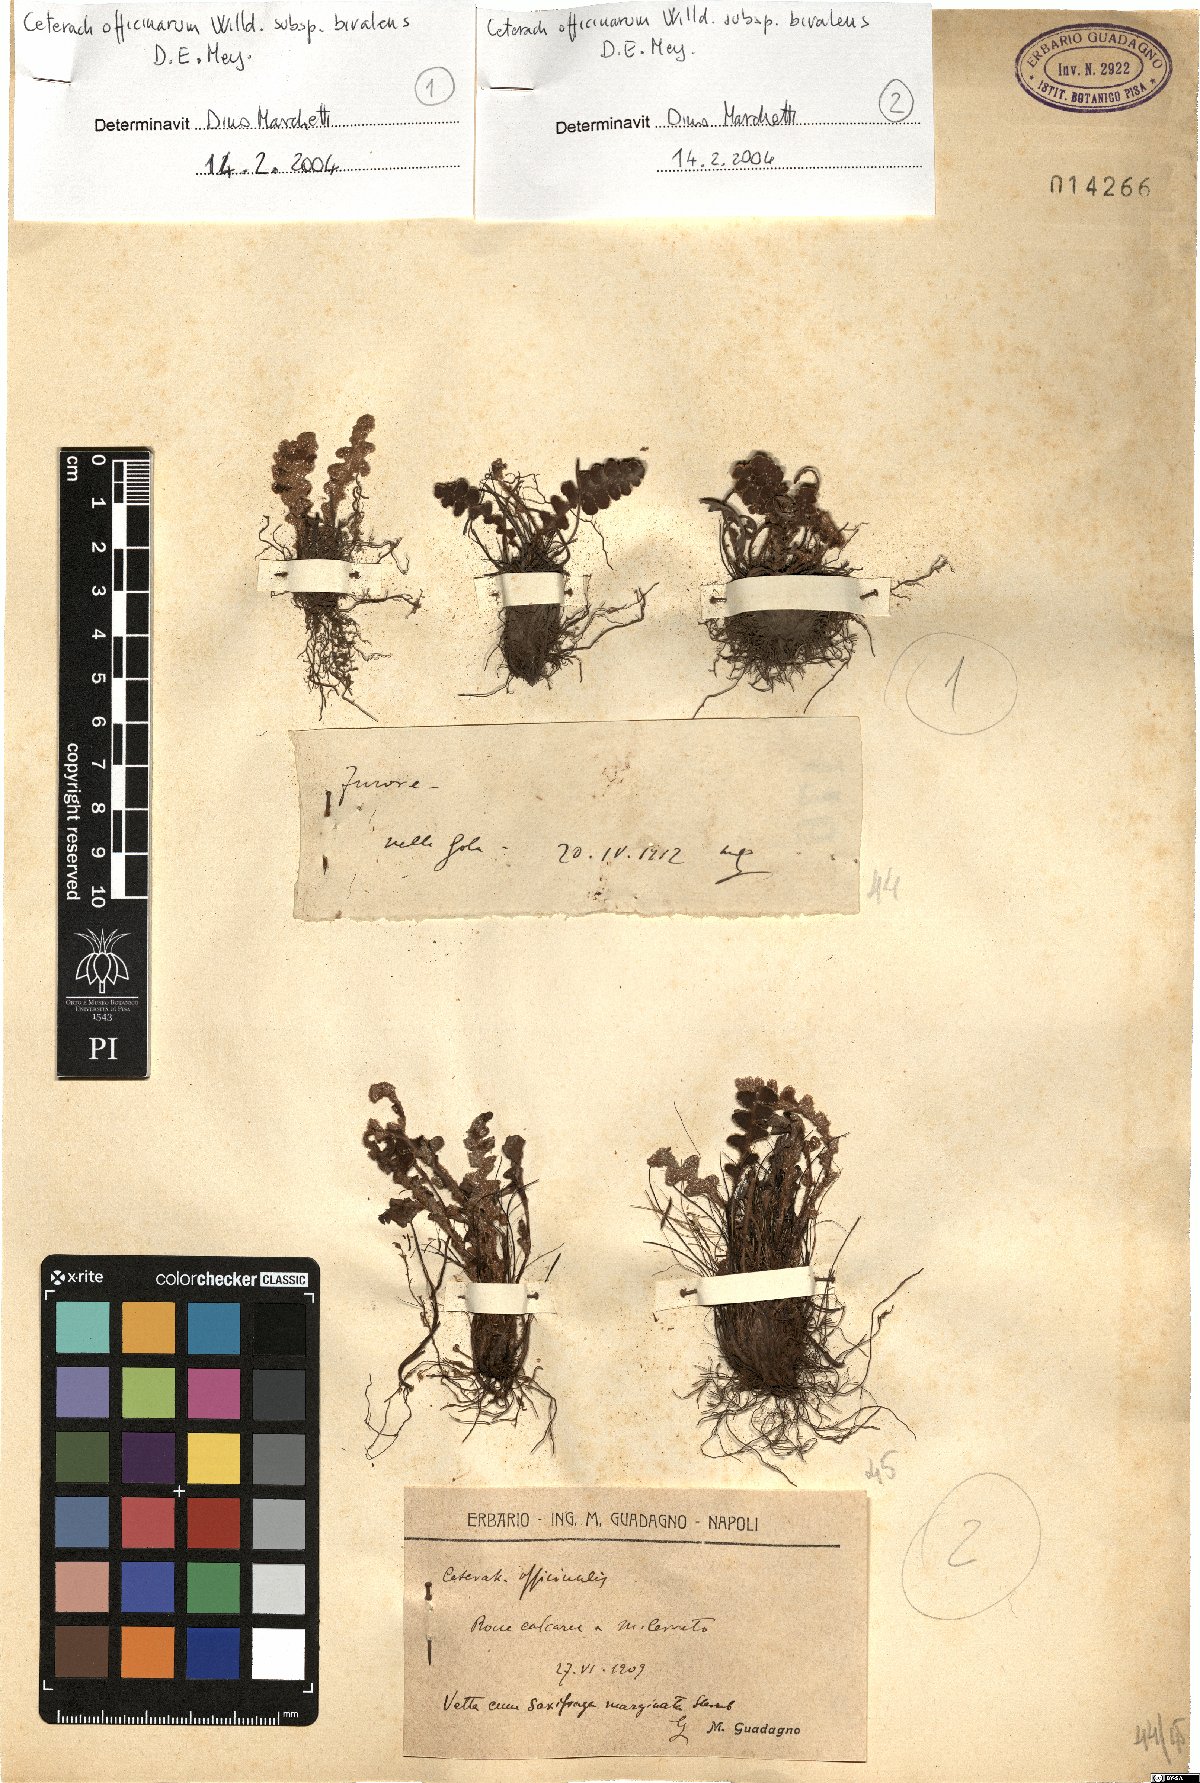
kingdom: Plantae
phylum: Tracheophyta
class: Polypodiopsida
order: Polypodiales
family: Aspleniaceae
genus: Asplenium
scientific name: Asplenium ceterach
